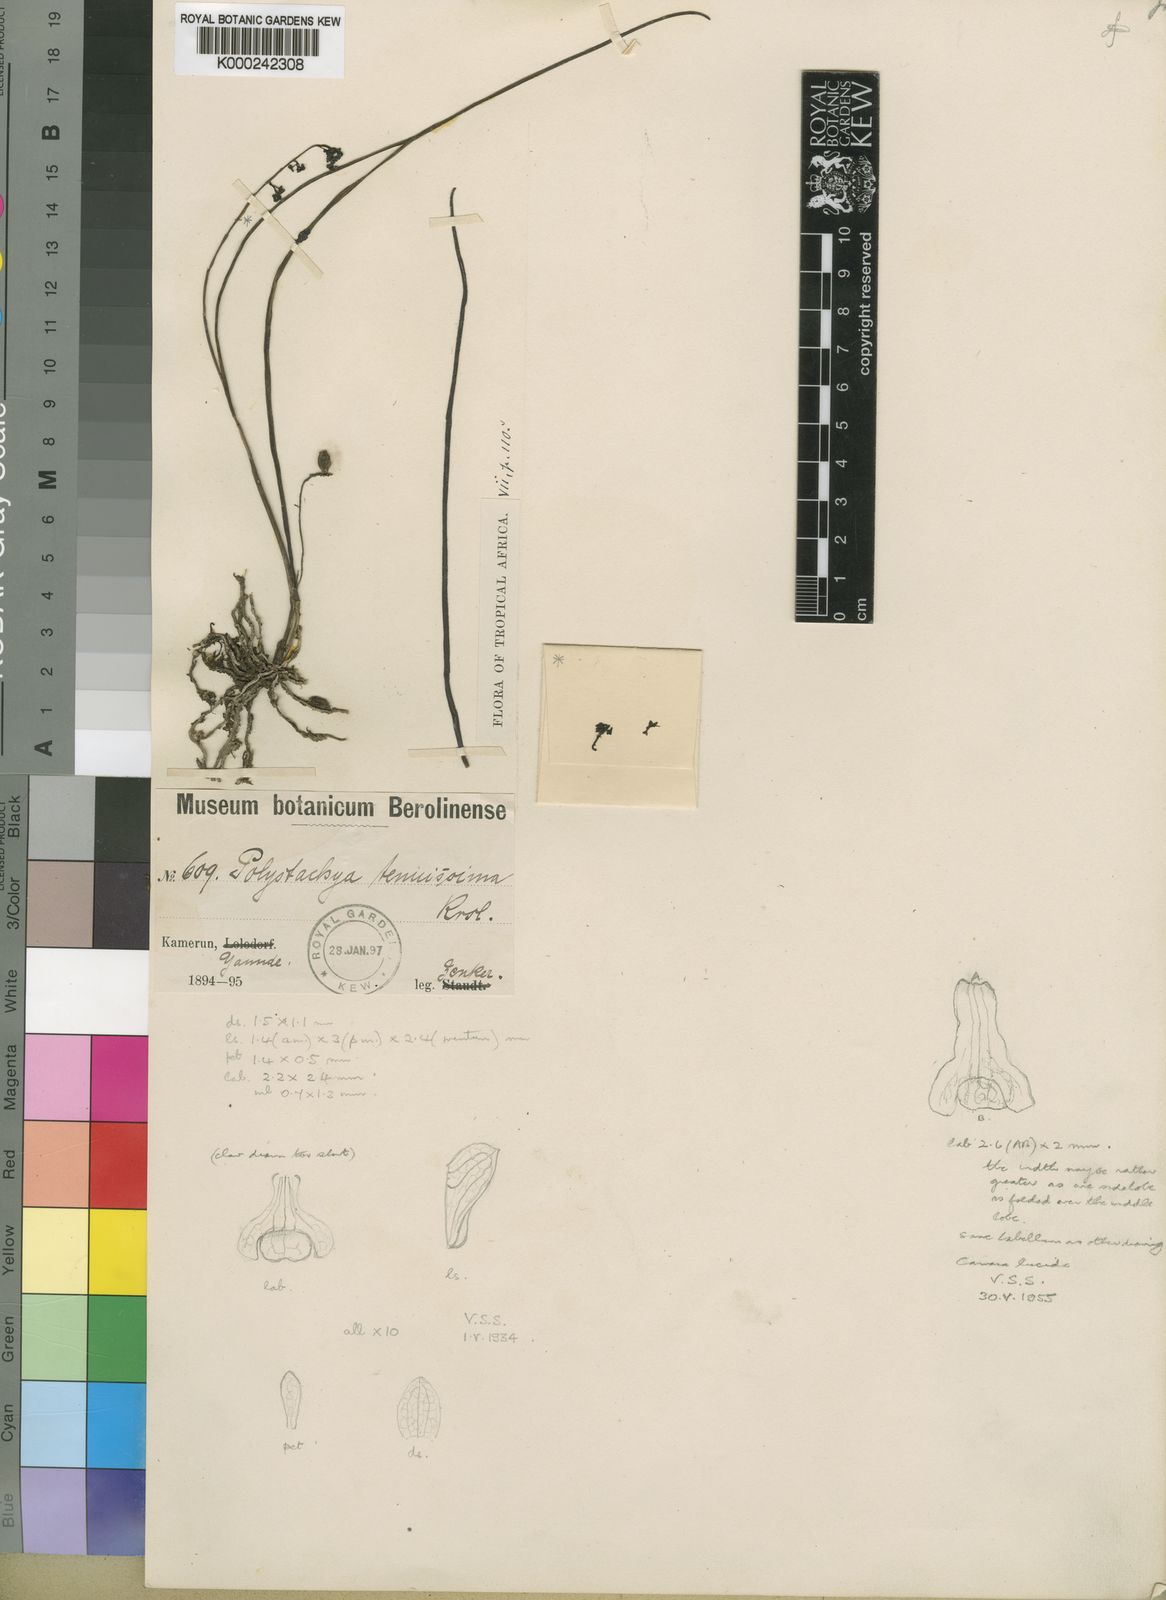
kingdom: Plantae
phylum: Tracheophyta
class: Liliopsida
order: Asparagales
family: Orchidaceae
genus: Polystachya
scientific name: Polystachya tenuissima
